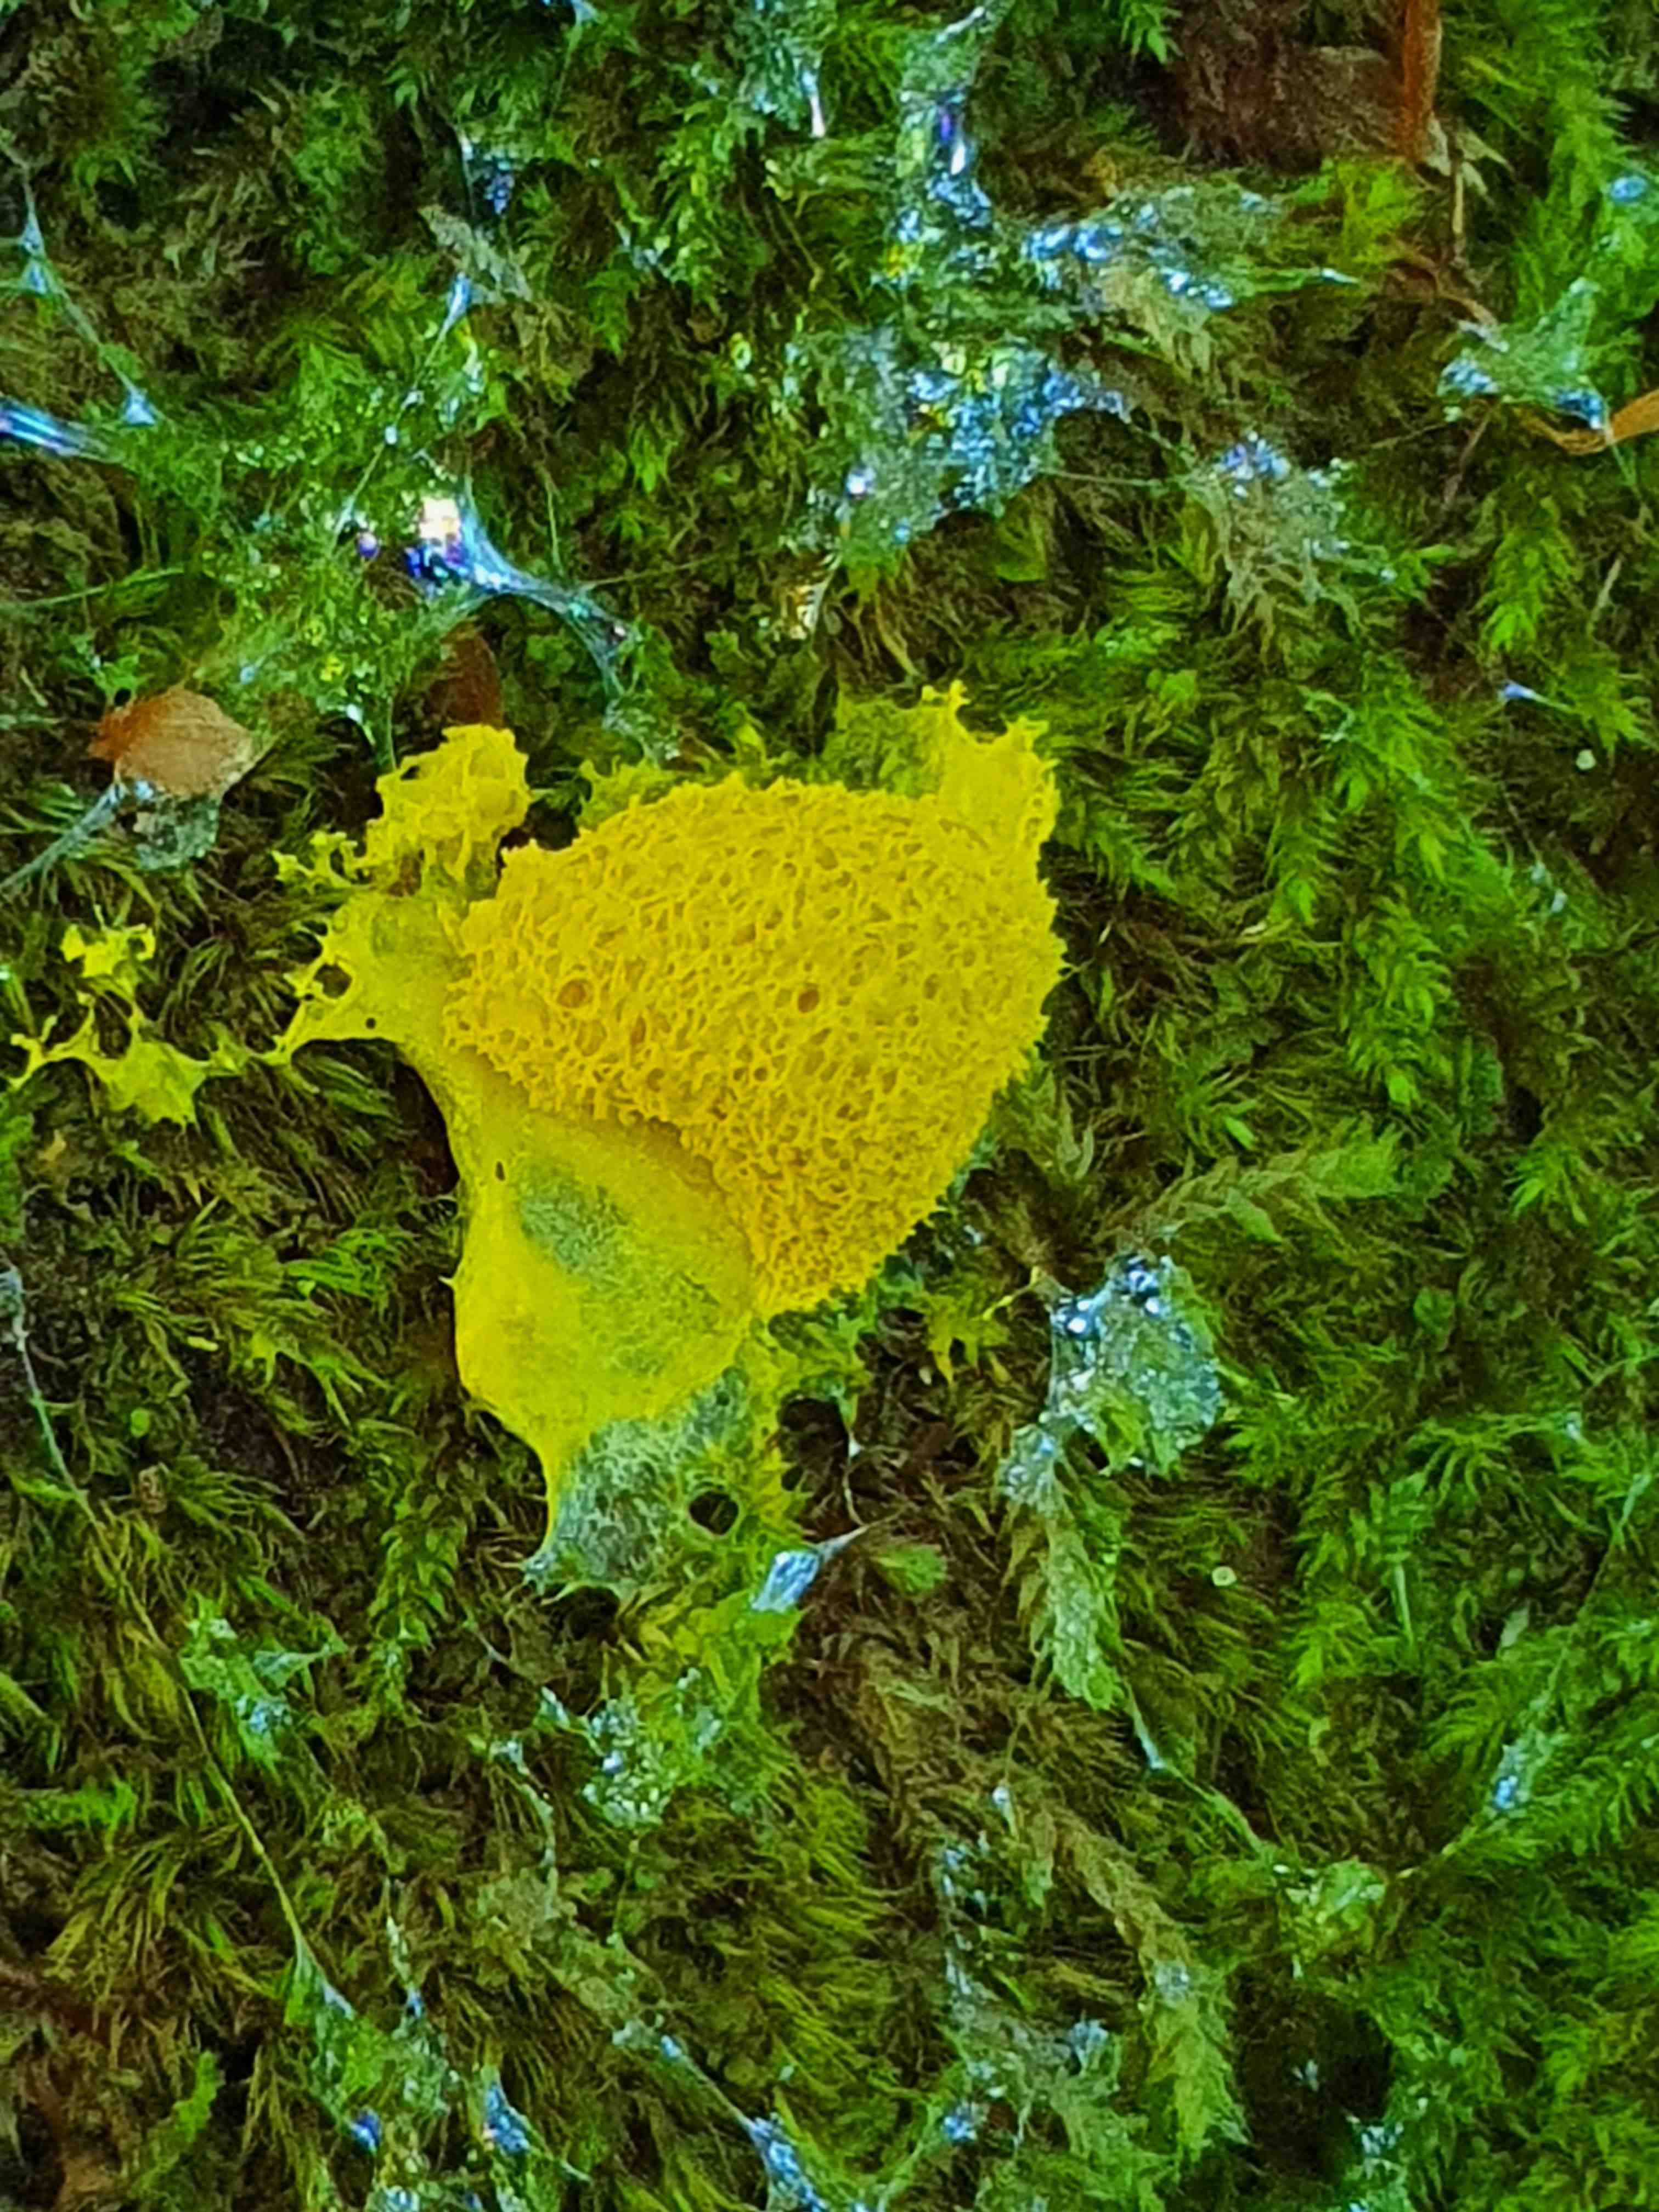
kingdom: Protozoa
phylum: Mycetozoa
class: Myxomycetes
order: Physarales
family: Physaraceae
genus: Fuligo
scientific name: Fuligo septica
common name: gul troldsmør
